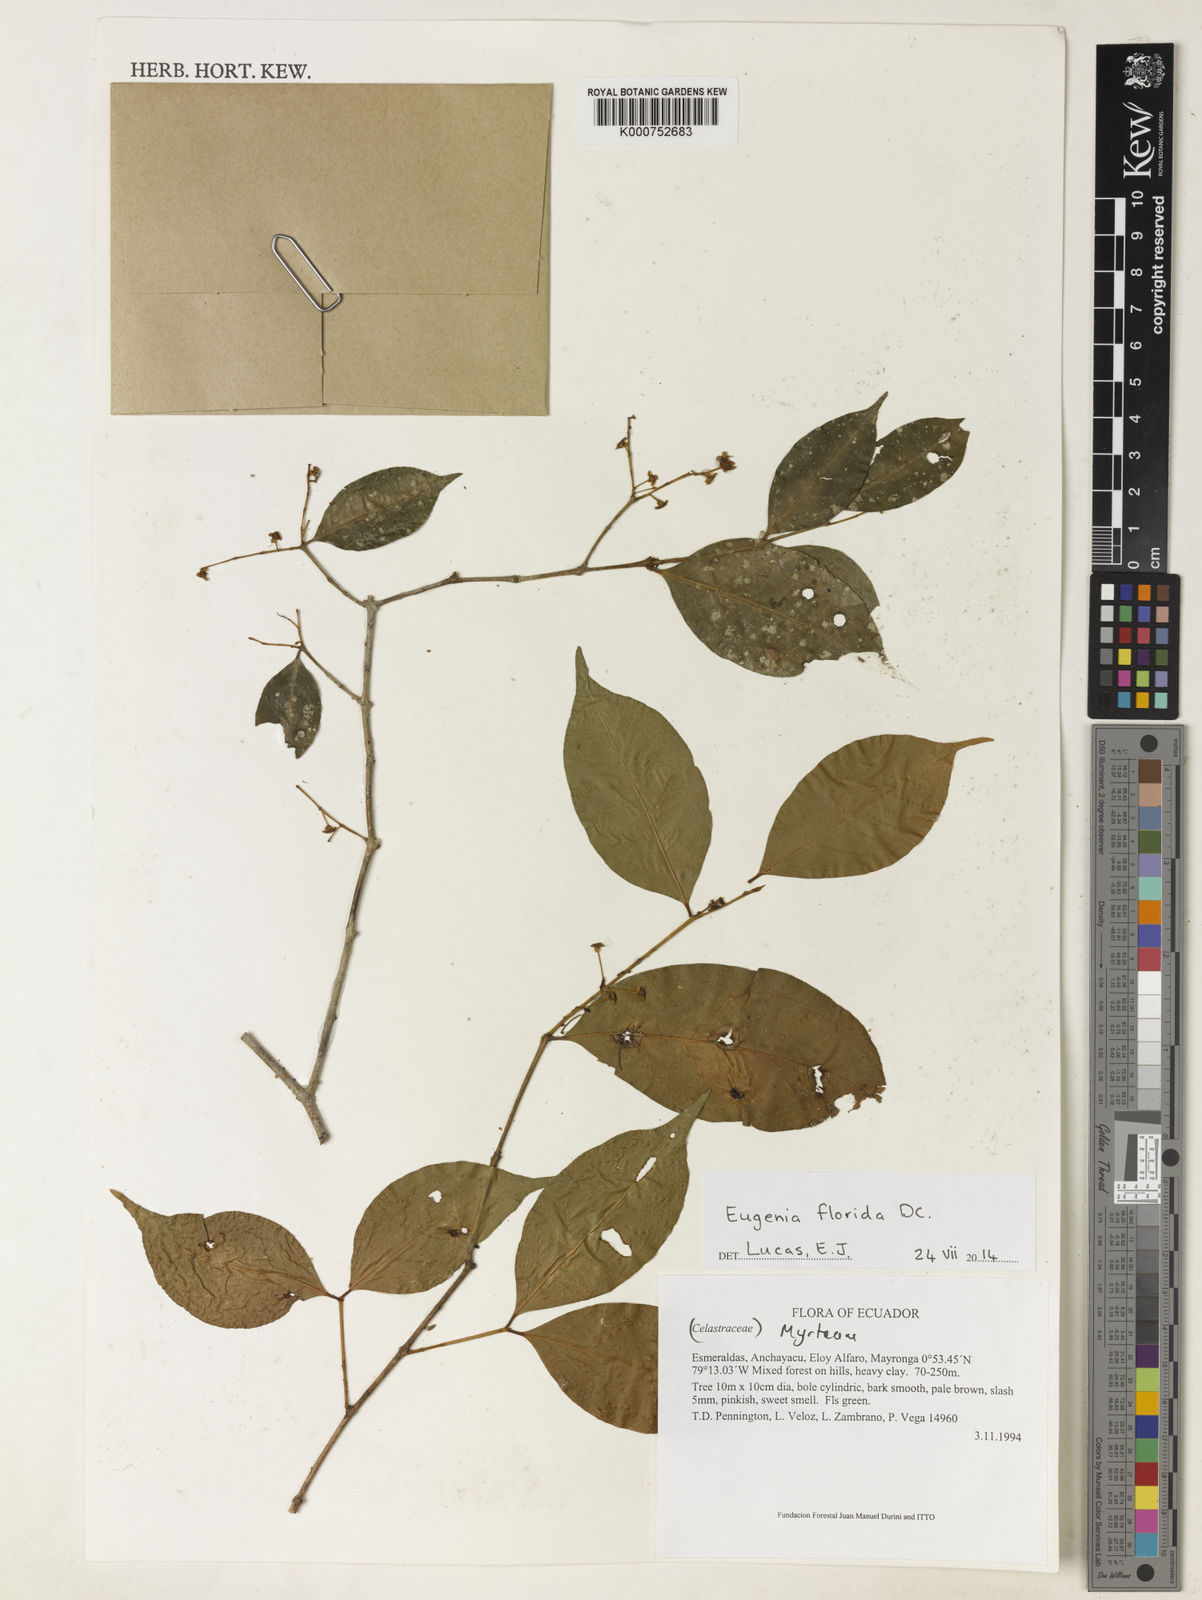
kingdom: Plantae
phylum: Tracheophyta
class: Magnoliopsida
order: Myrtales
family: Myrtaceae
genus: Eugenia
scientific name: Eugenia florida
